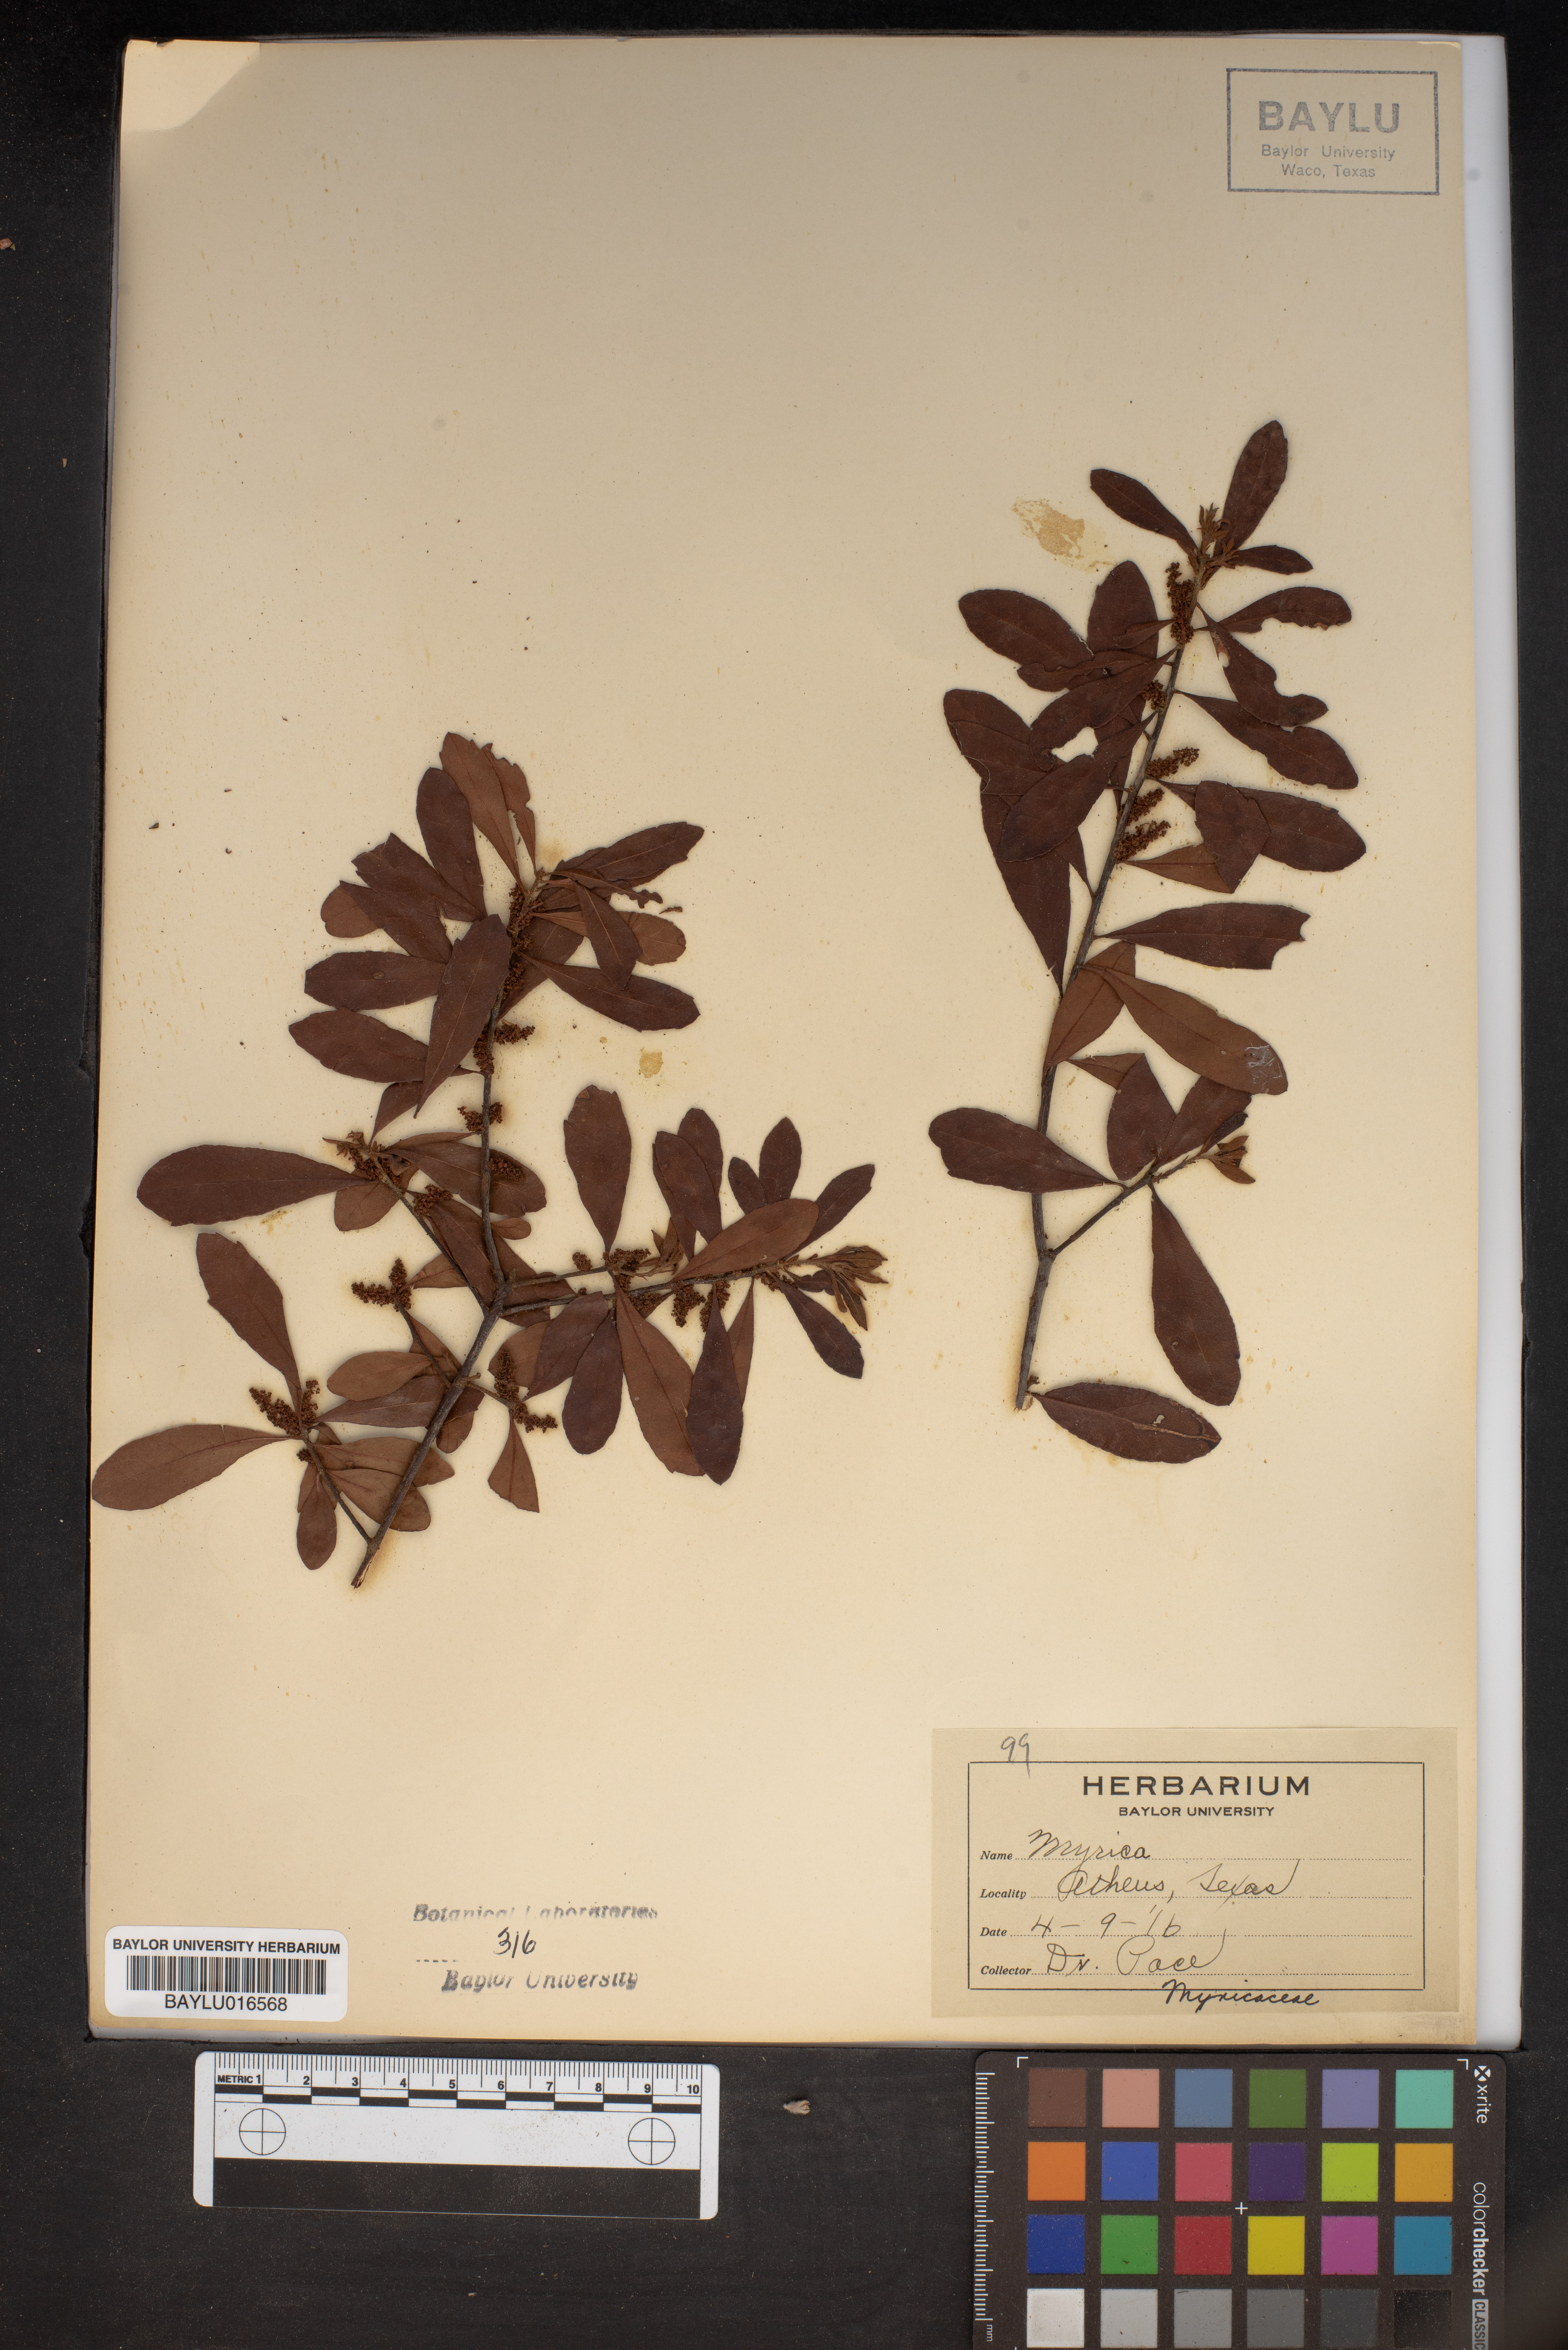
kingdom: Plantae
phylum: Tracheophyta
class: Magnoliopsida
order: Fagales
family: Myricaceae
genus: Myrica
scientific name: Myrica
